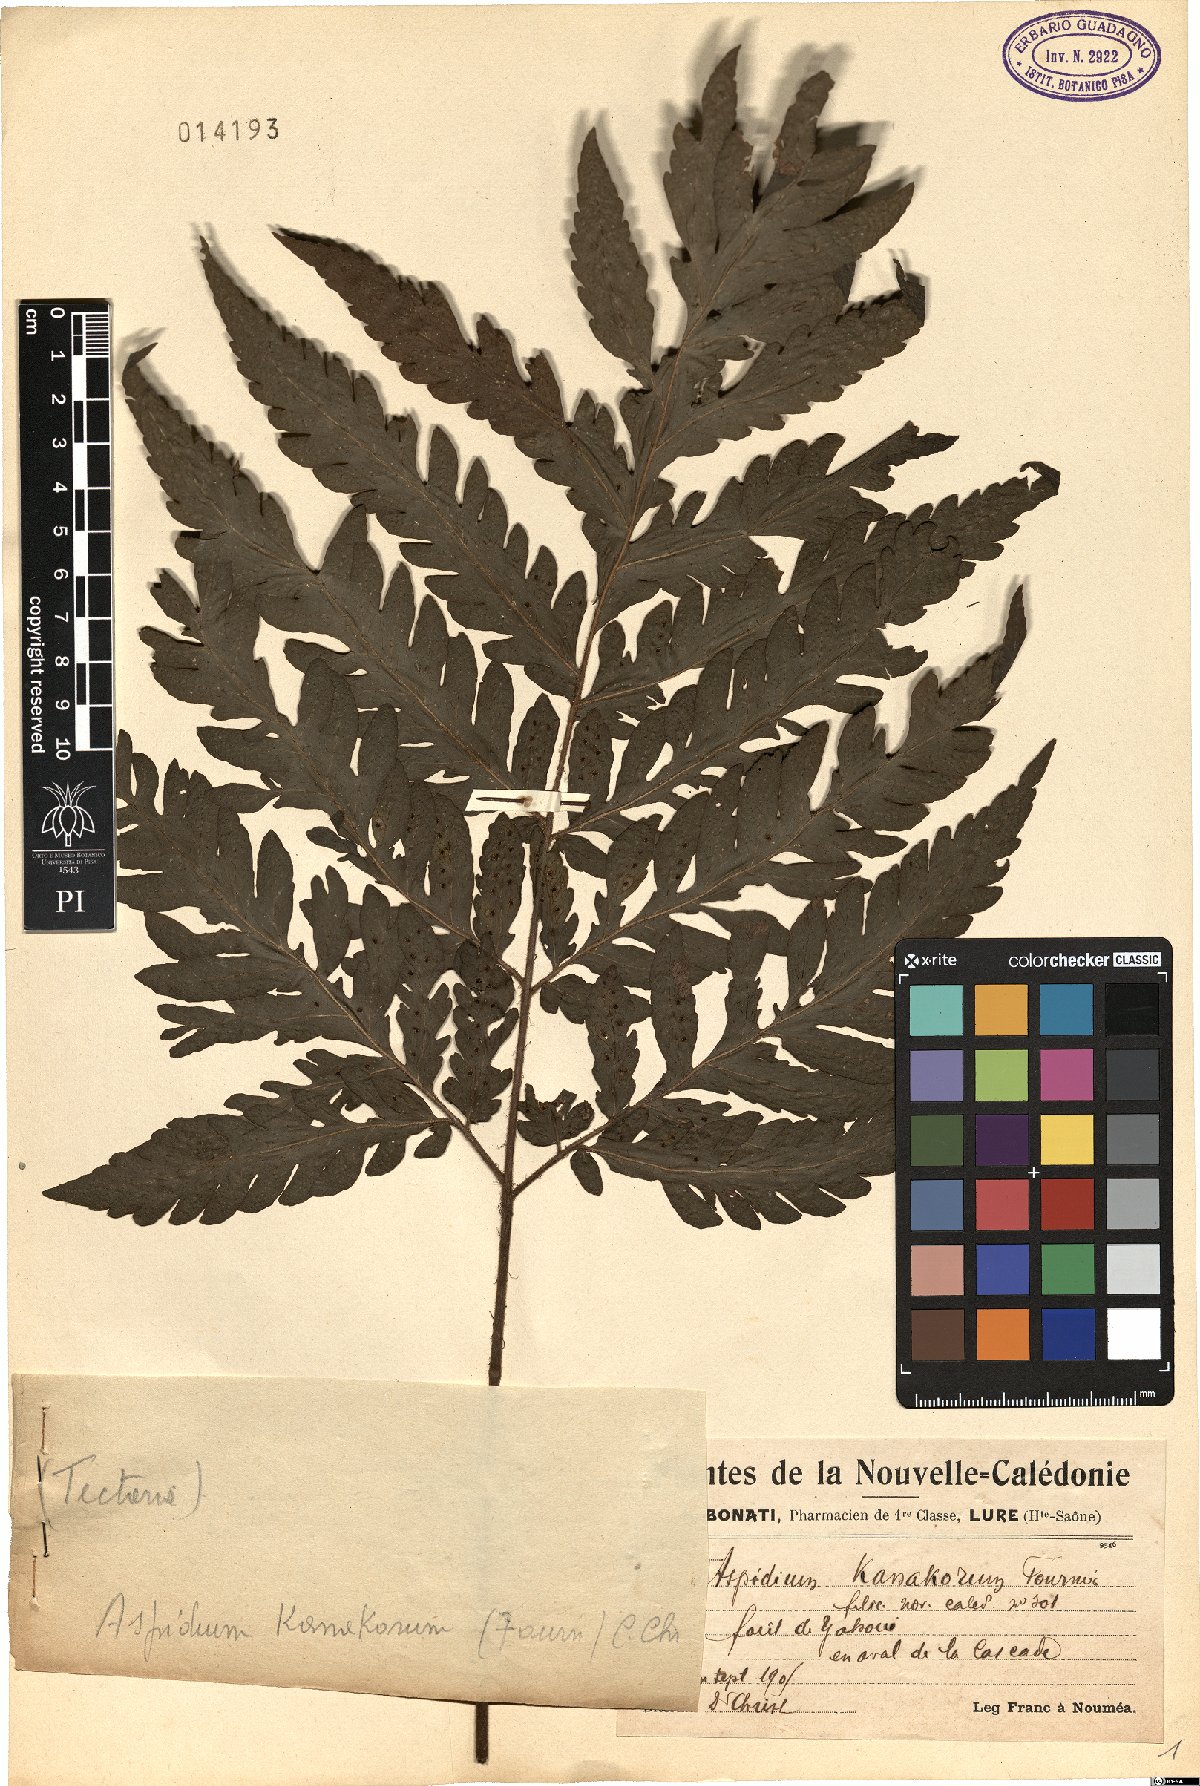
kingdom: Plantae
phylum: Tracheophyta
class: Polypodiopsida
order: Polypodiales
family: Tectariaceae
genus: Tectaria
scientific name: Tectaria sinuata
